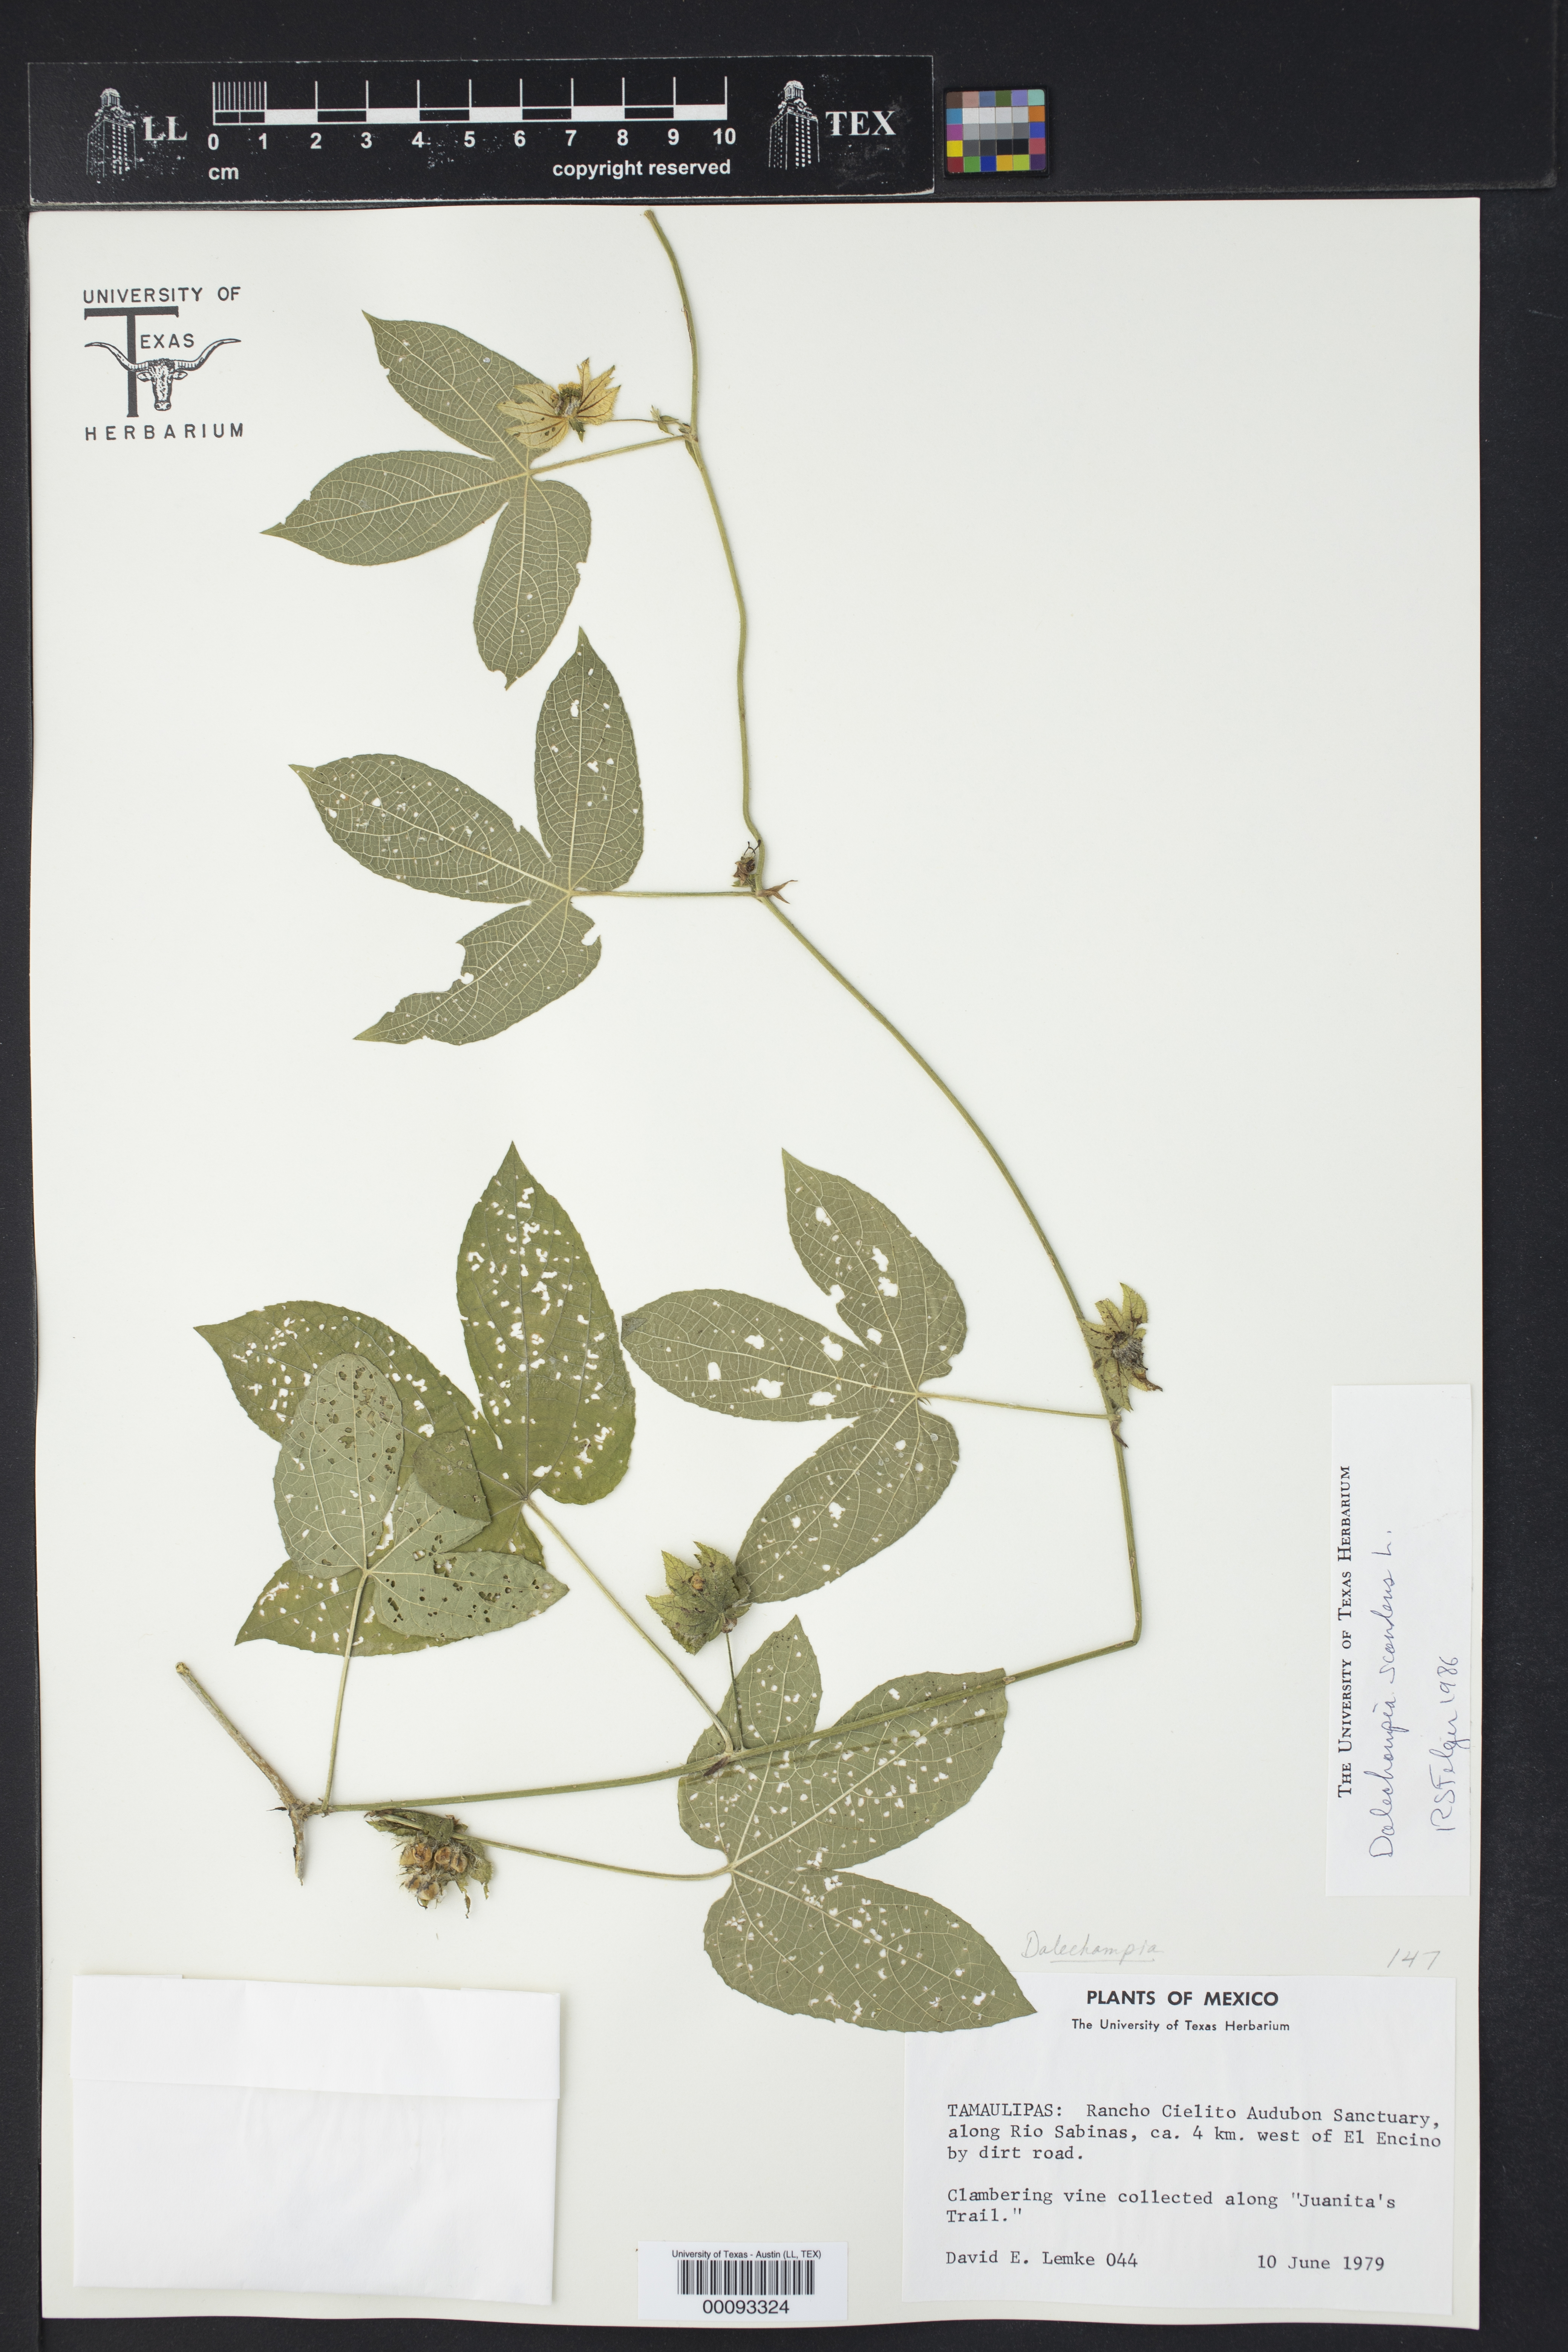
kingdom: Plantae
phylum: Tracheophyta
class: Magnoliopsida
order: Malpighiales
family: Euphorbiaceae
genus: Dalechampia
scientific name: Dalechampia scandens
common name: Spurgecreeper
